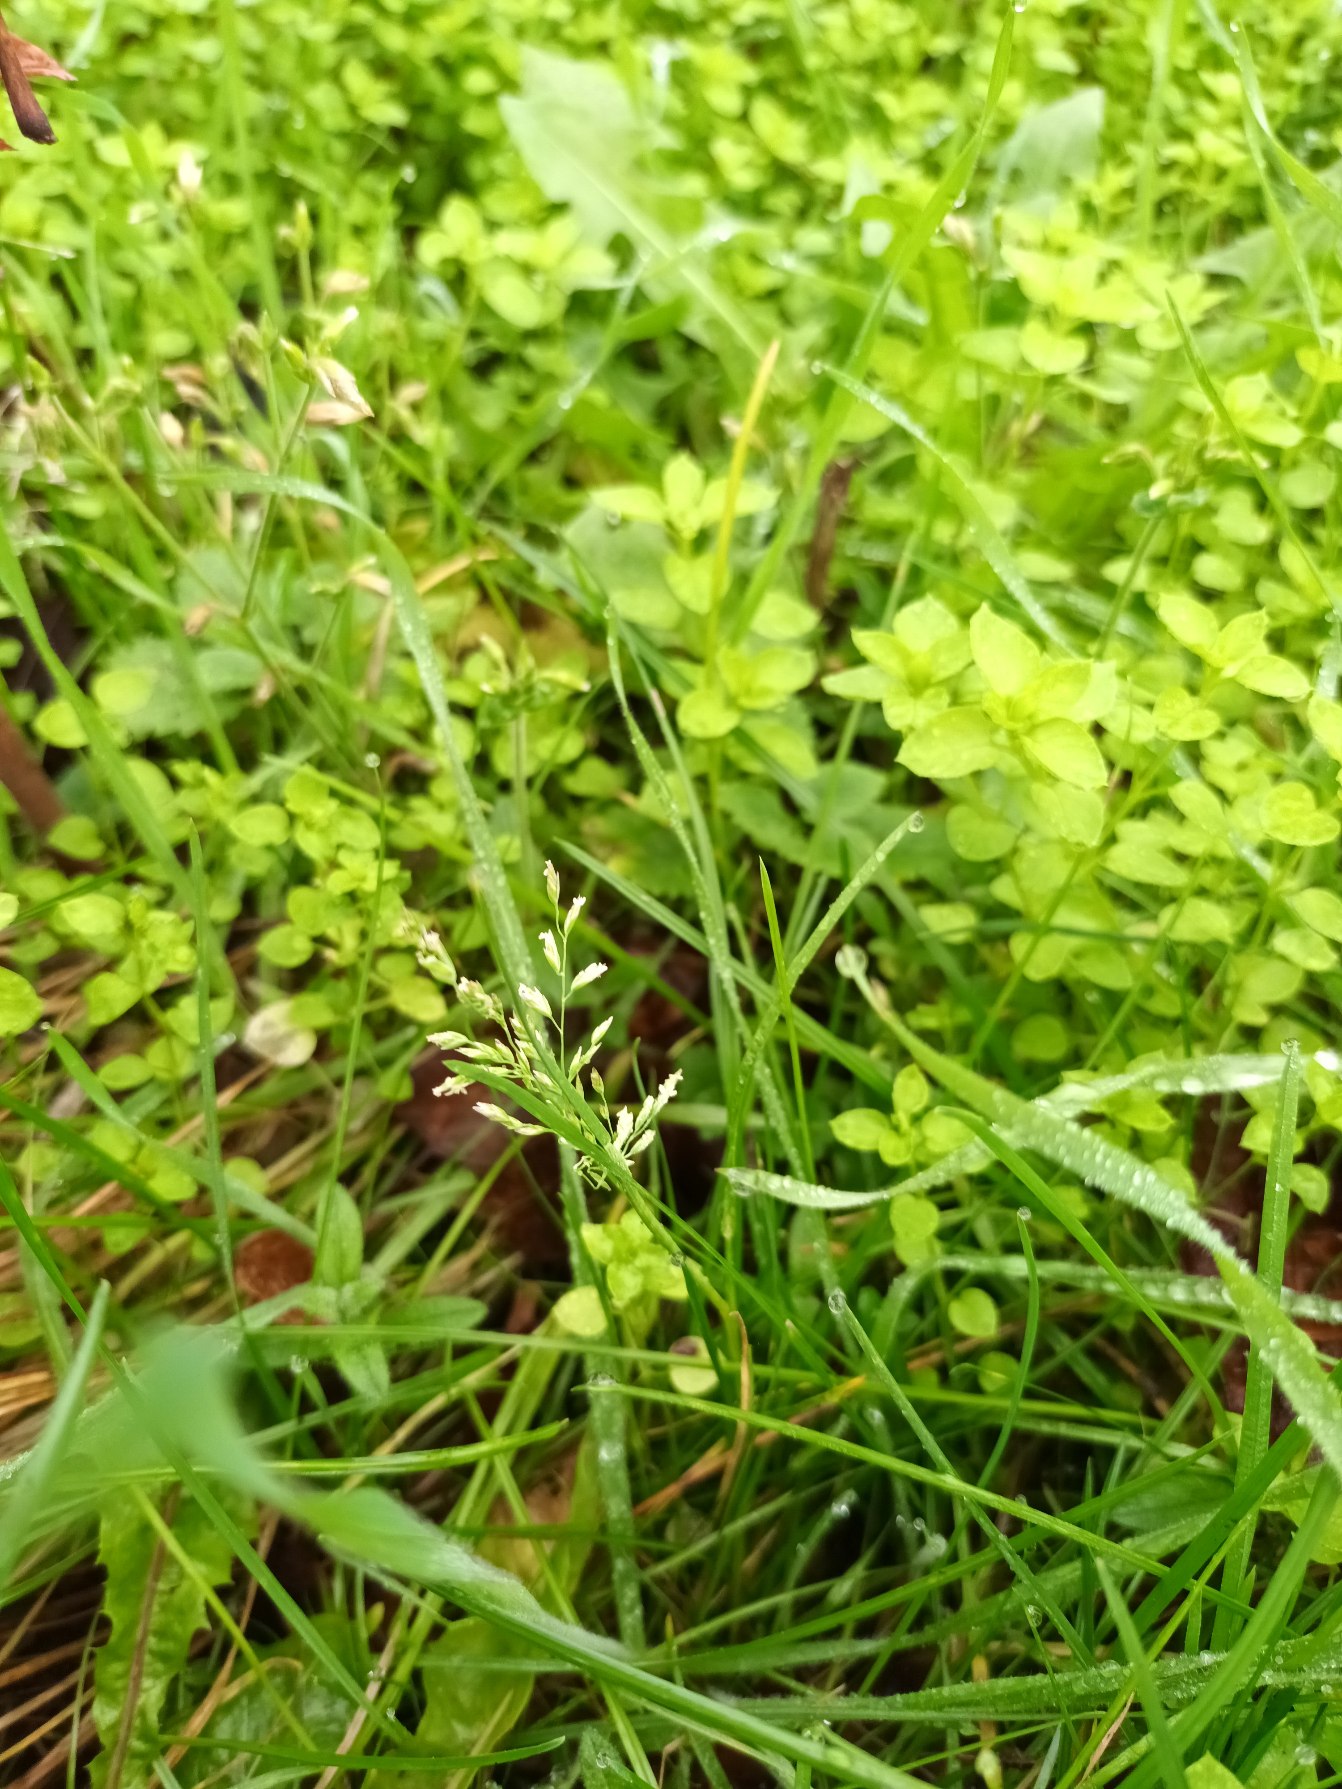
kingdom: Plantae
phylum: Tracheophyta
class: Liliopsida
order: Poales
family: Poaceae
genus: Poa
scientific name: Poa annua
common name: Enårig rapgræs
